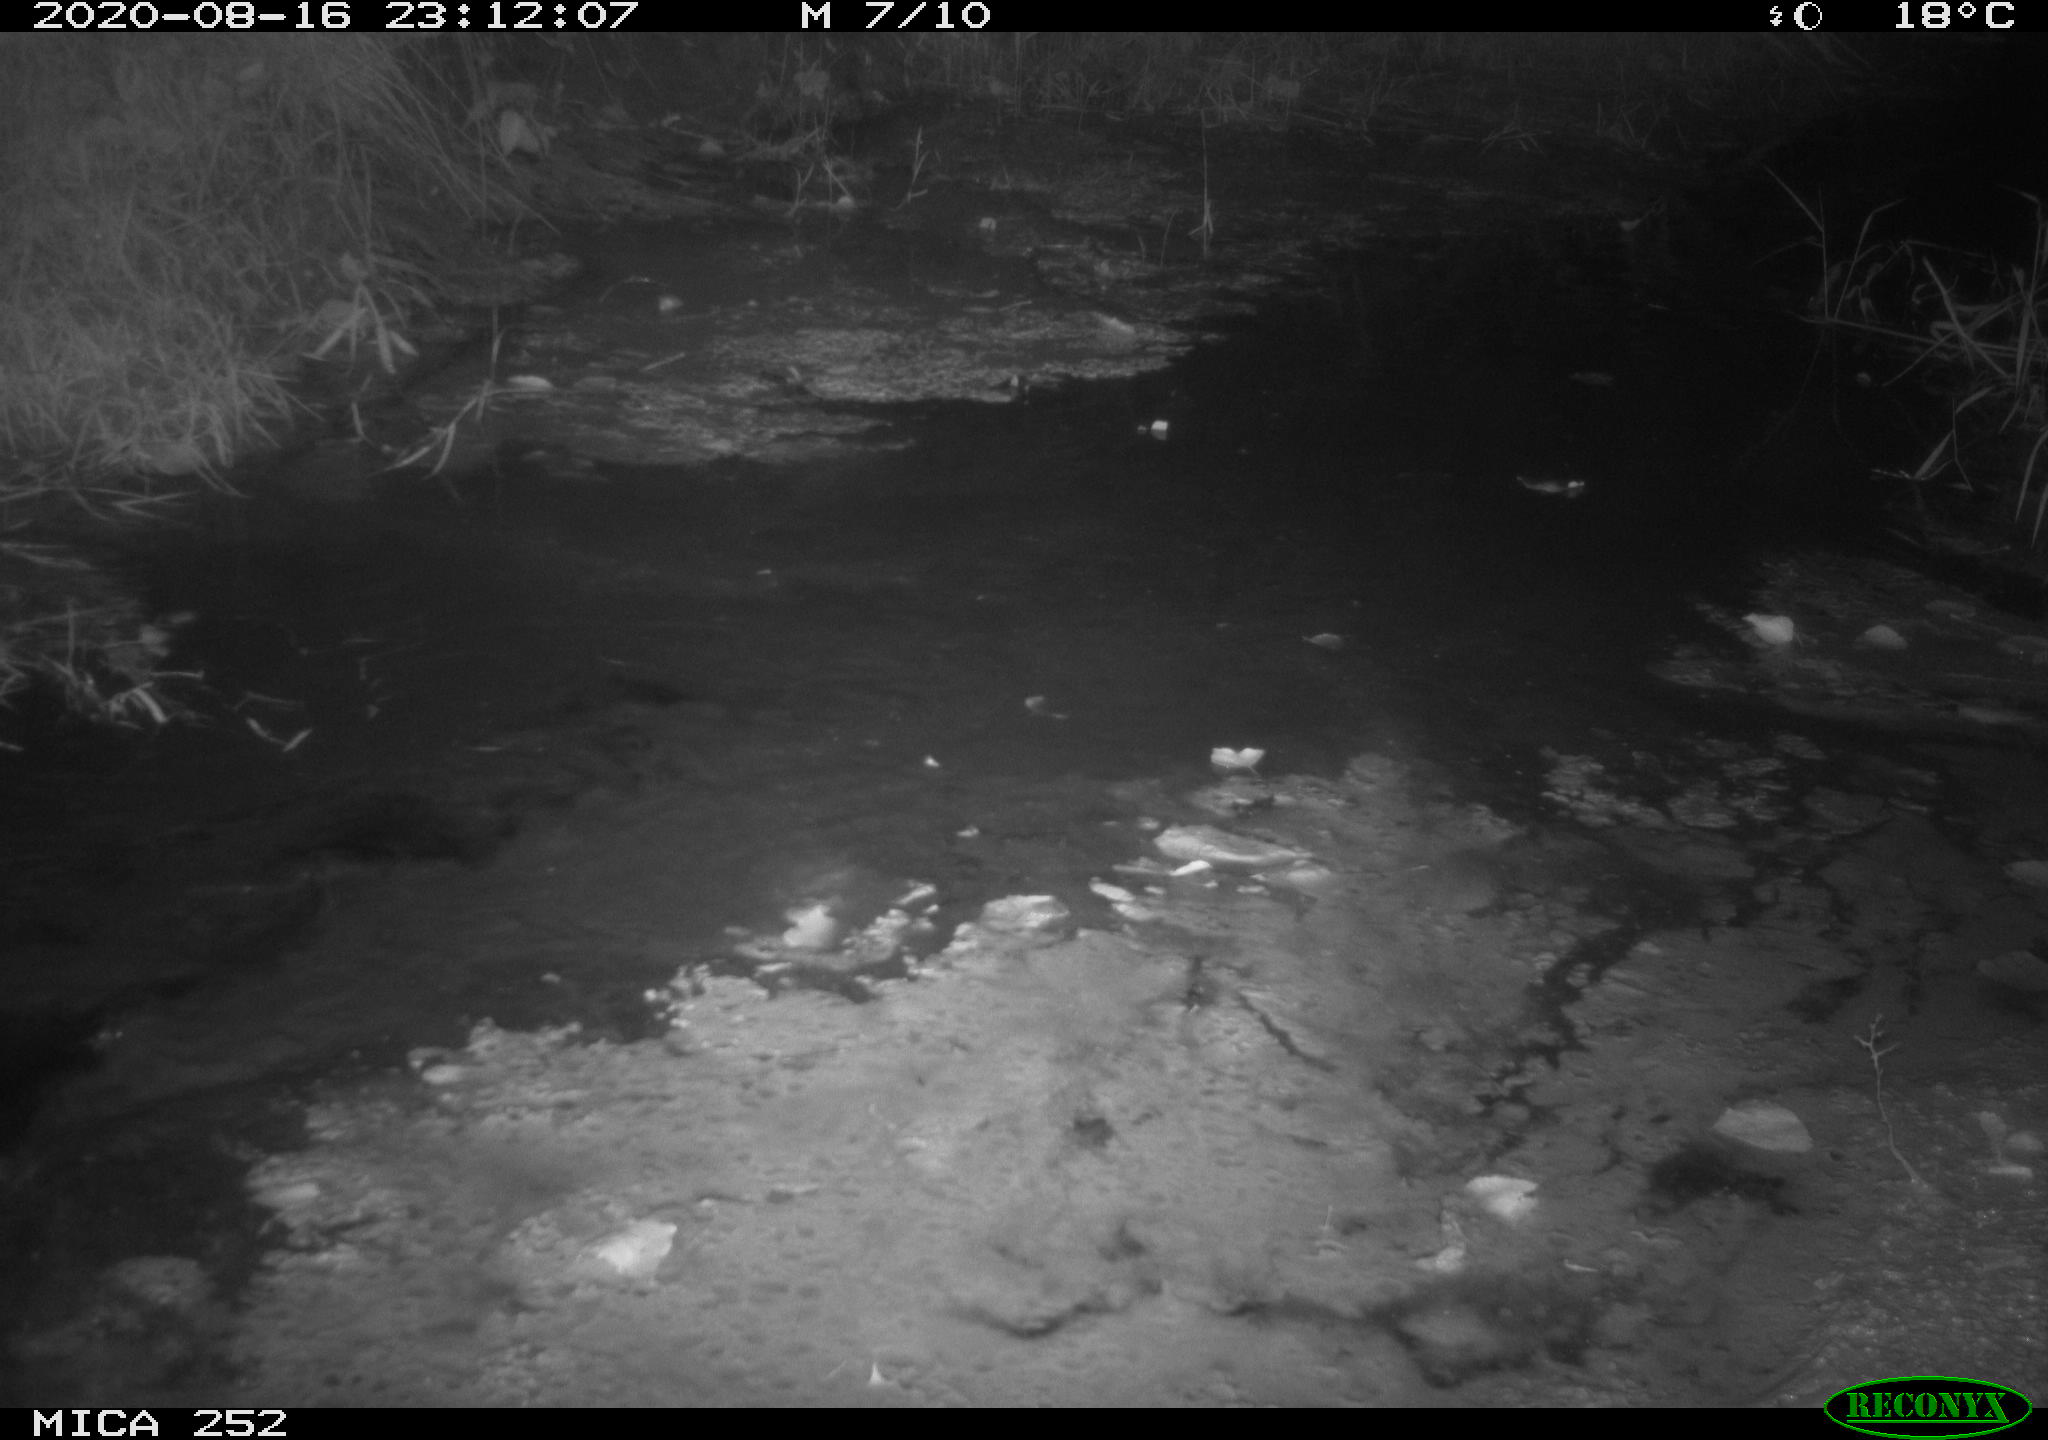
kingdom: Animalia
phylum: Chordata
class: Mammalia
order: Rodentia
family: Castoridae
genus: Castor
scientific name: Castor fiber
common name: Eurasian beaver
